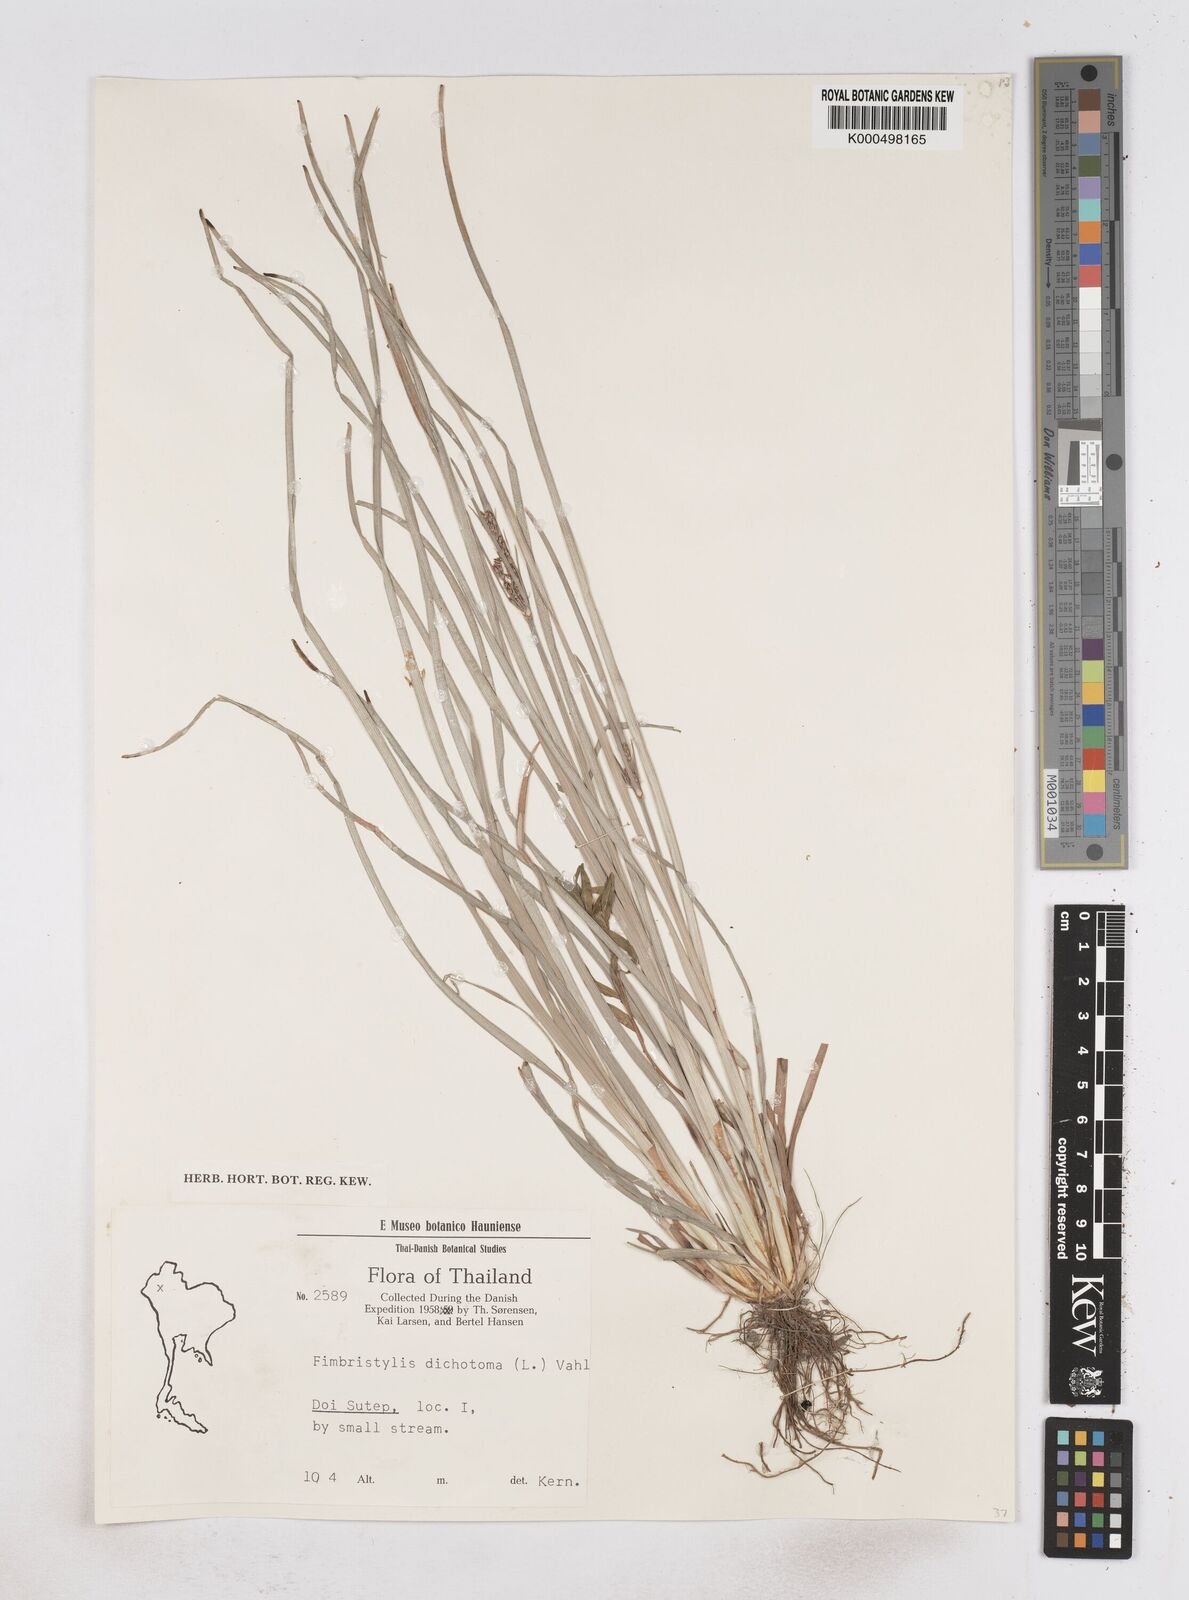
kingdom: Plantae
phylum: Tracheophyta
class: Liliopsida
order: Poales
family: Cyperaceae
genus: Fimbristylis
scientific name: Fimbristylis dichotoma
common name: Forked fimbry
